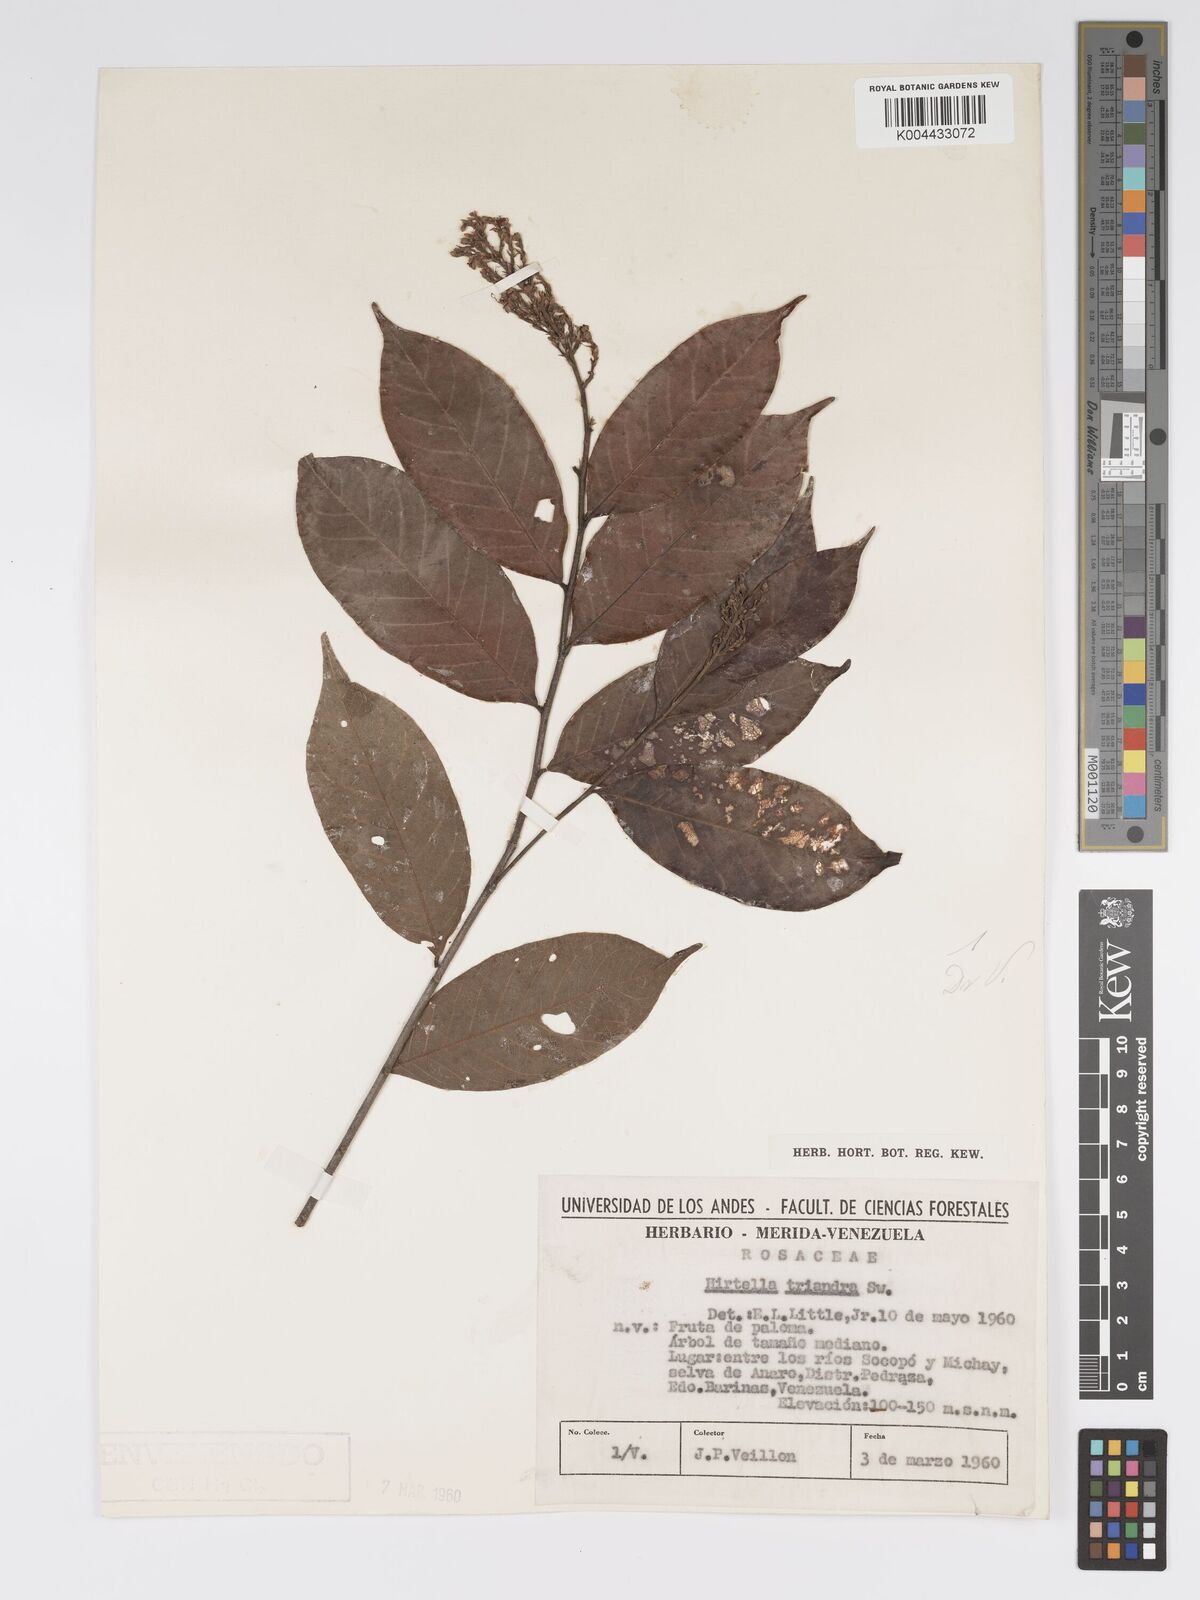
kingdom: Plantae
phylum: Tracheophyta
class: Magnoliopsida
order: Malpighiales
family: Chrysobalanaceae
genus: Hirtella
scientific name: Hirtella triandra
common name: Hairy plum
